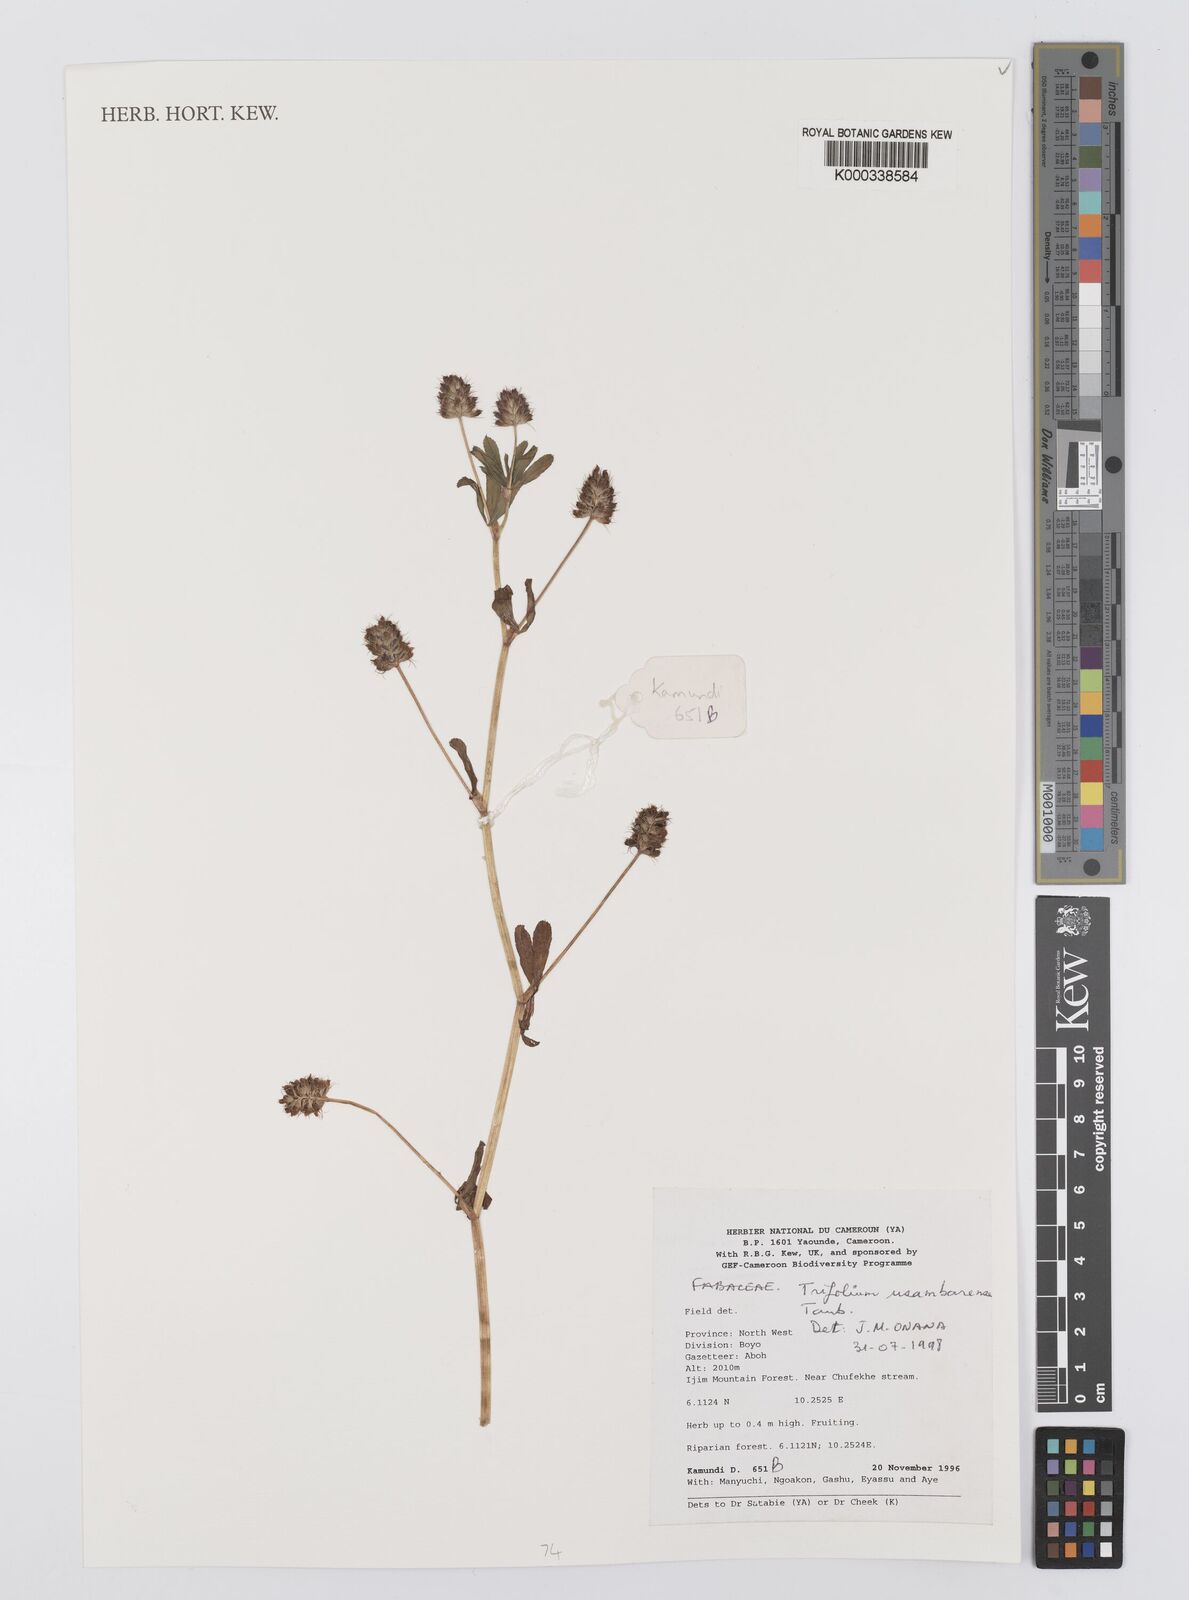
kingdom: Plantae
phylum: Tracheophyta
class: Magnoliopsida
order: Fabales
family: Fabaceae
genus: Trifolium
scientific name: Trifolium usambarense
